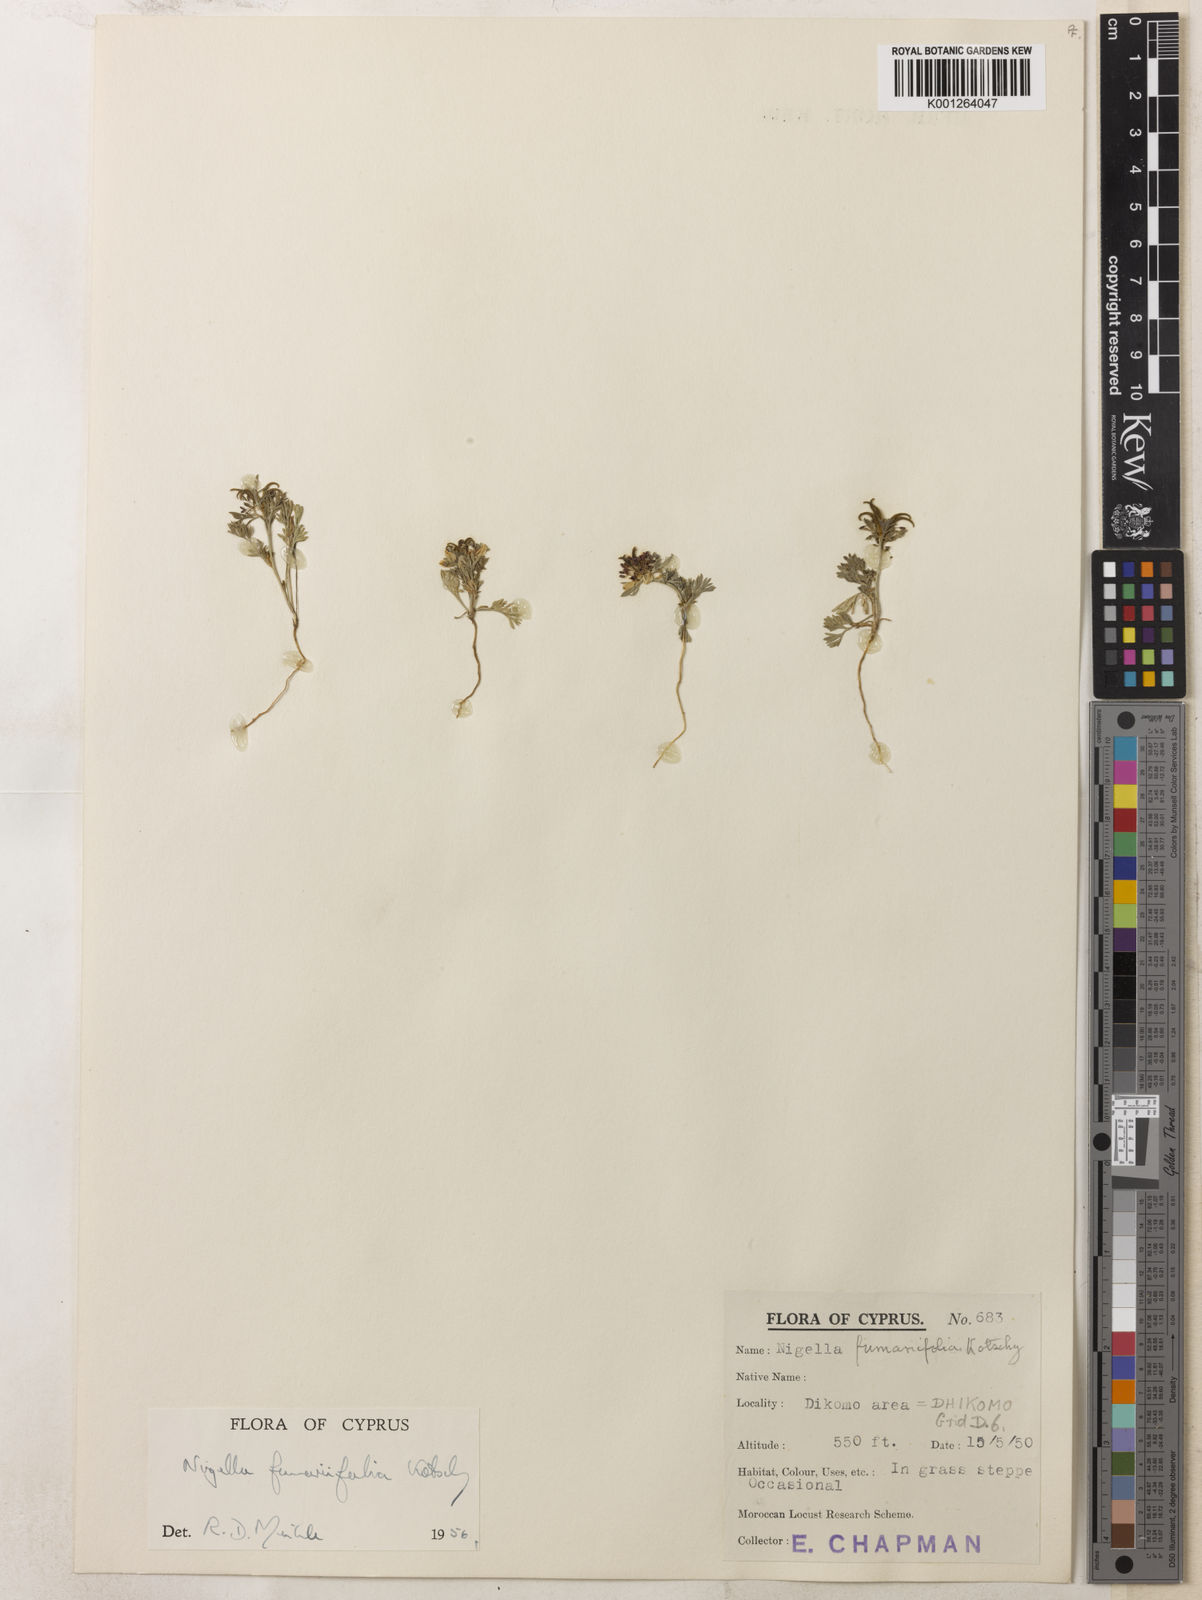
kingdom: Plantae
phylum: Tracheophyta
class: Magnoliopsida
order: Ranunculales
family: Ranunculaceae
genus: Nigella
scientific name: Nigella
